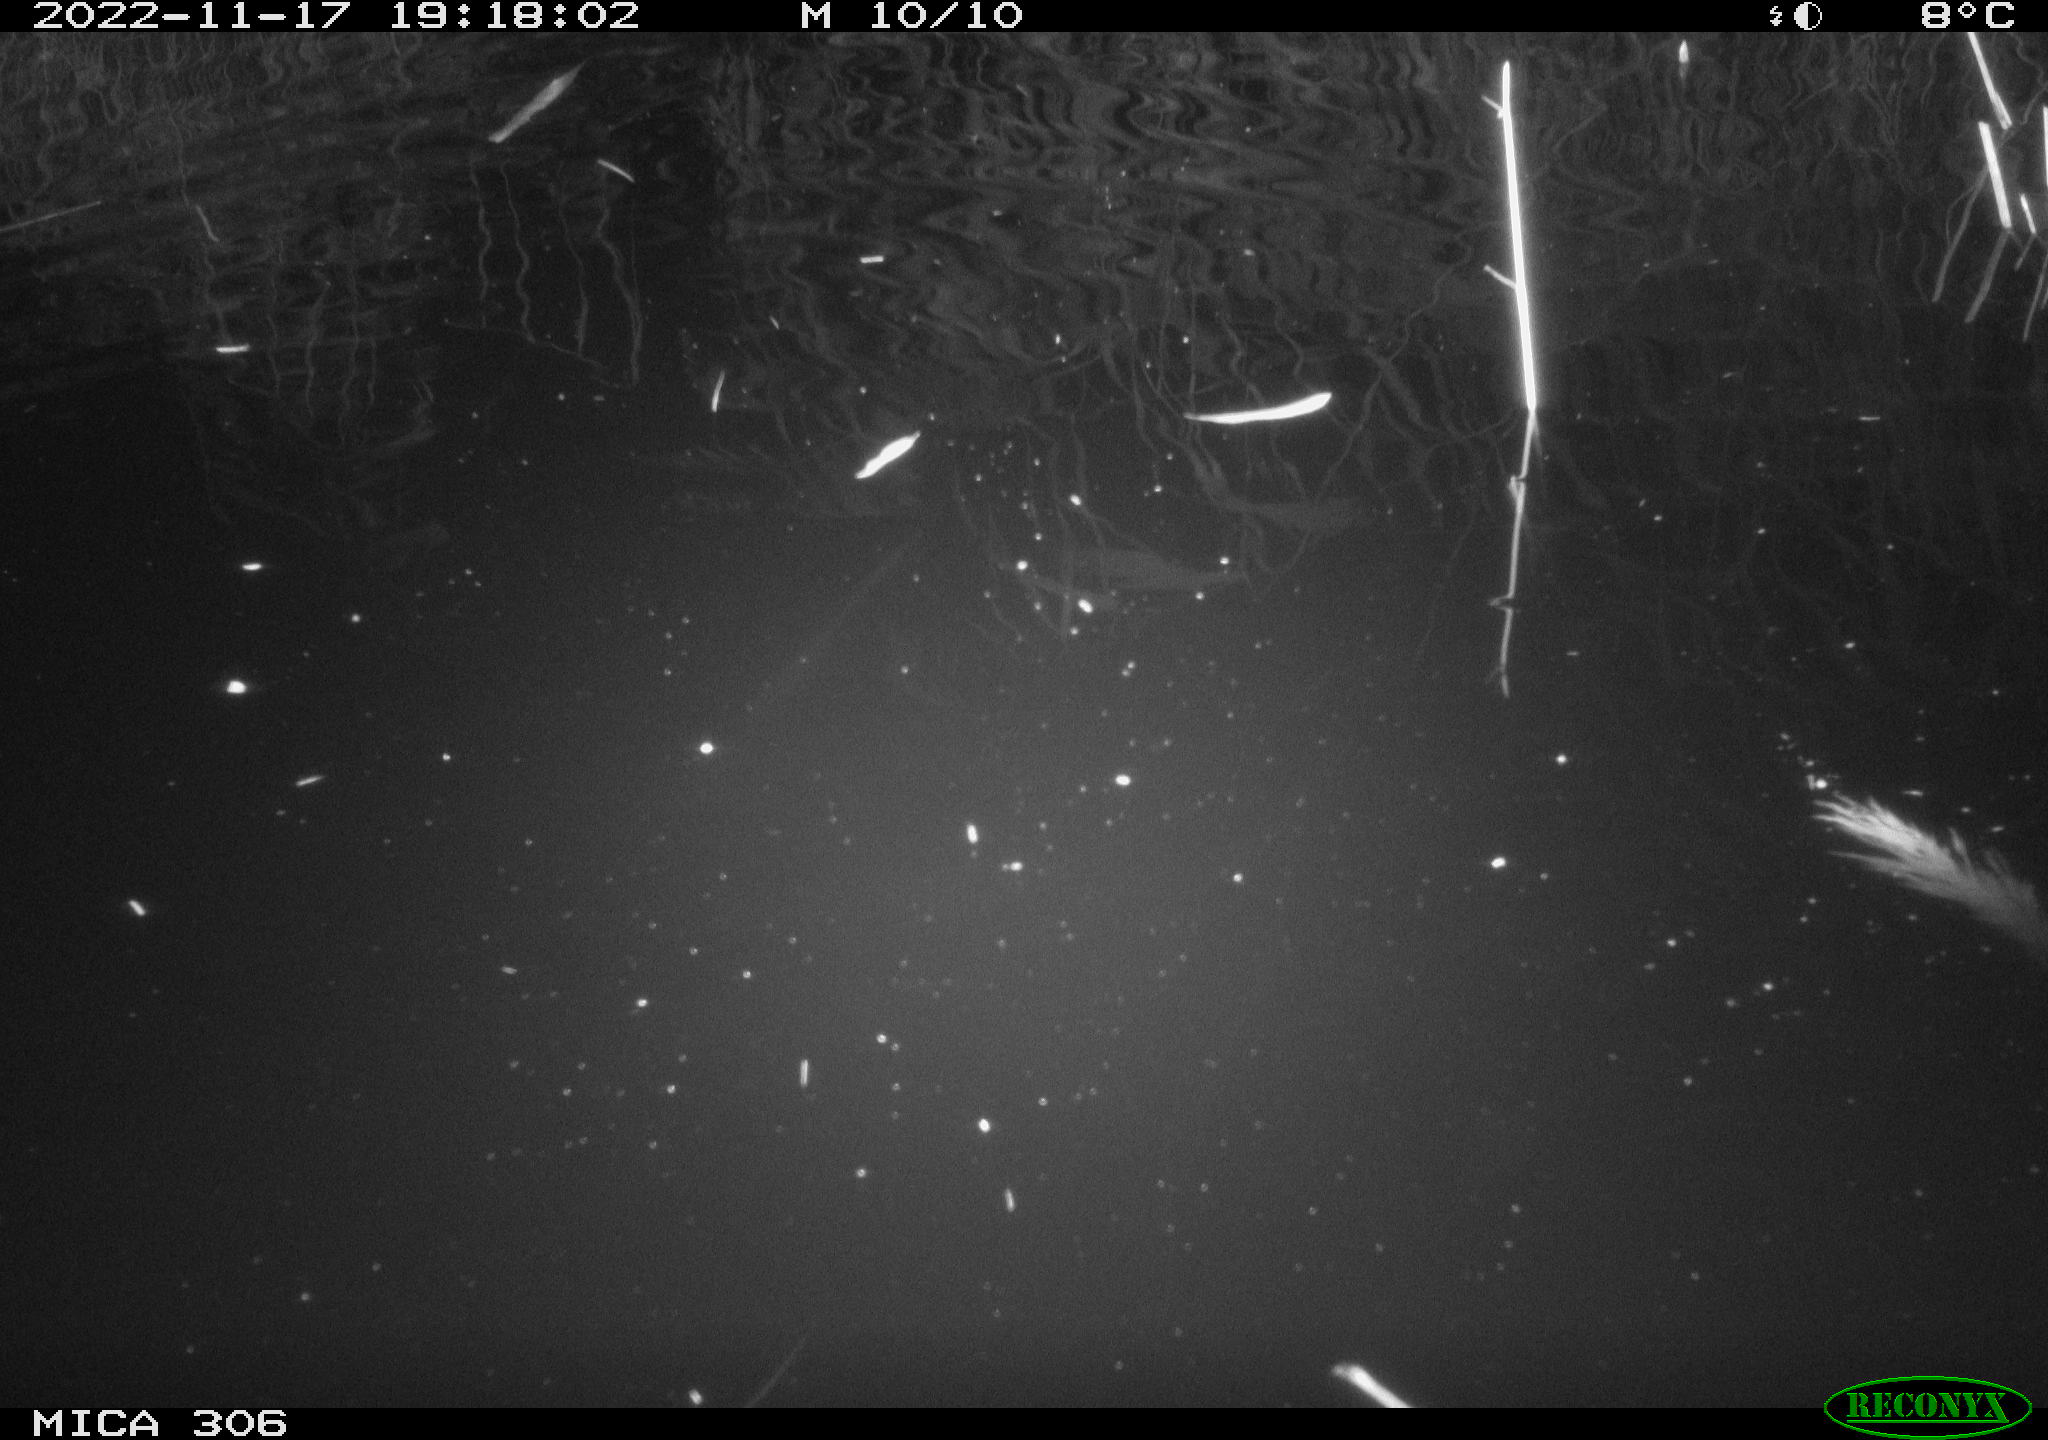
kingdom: Animalia
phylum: Chordata
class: Mammalia
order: Rodentia
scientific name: Rodentia
